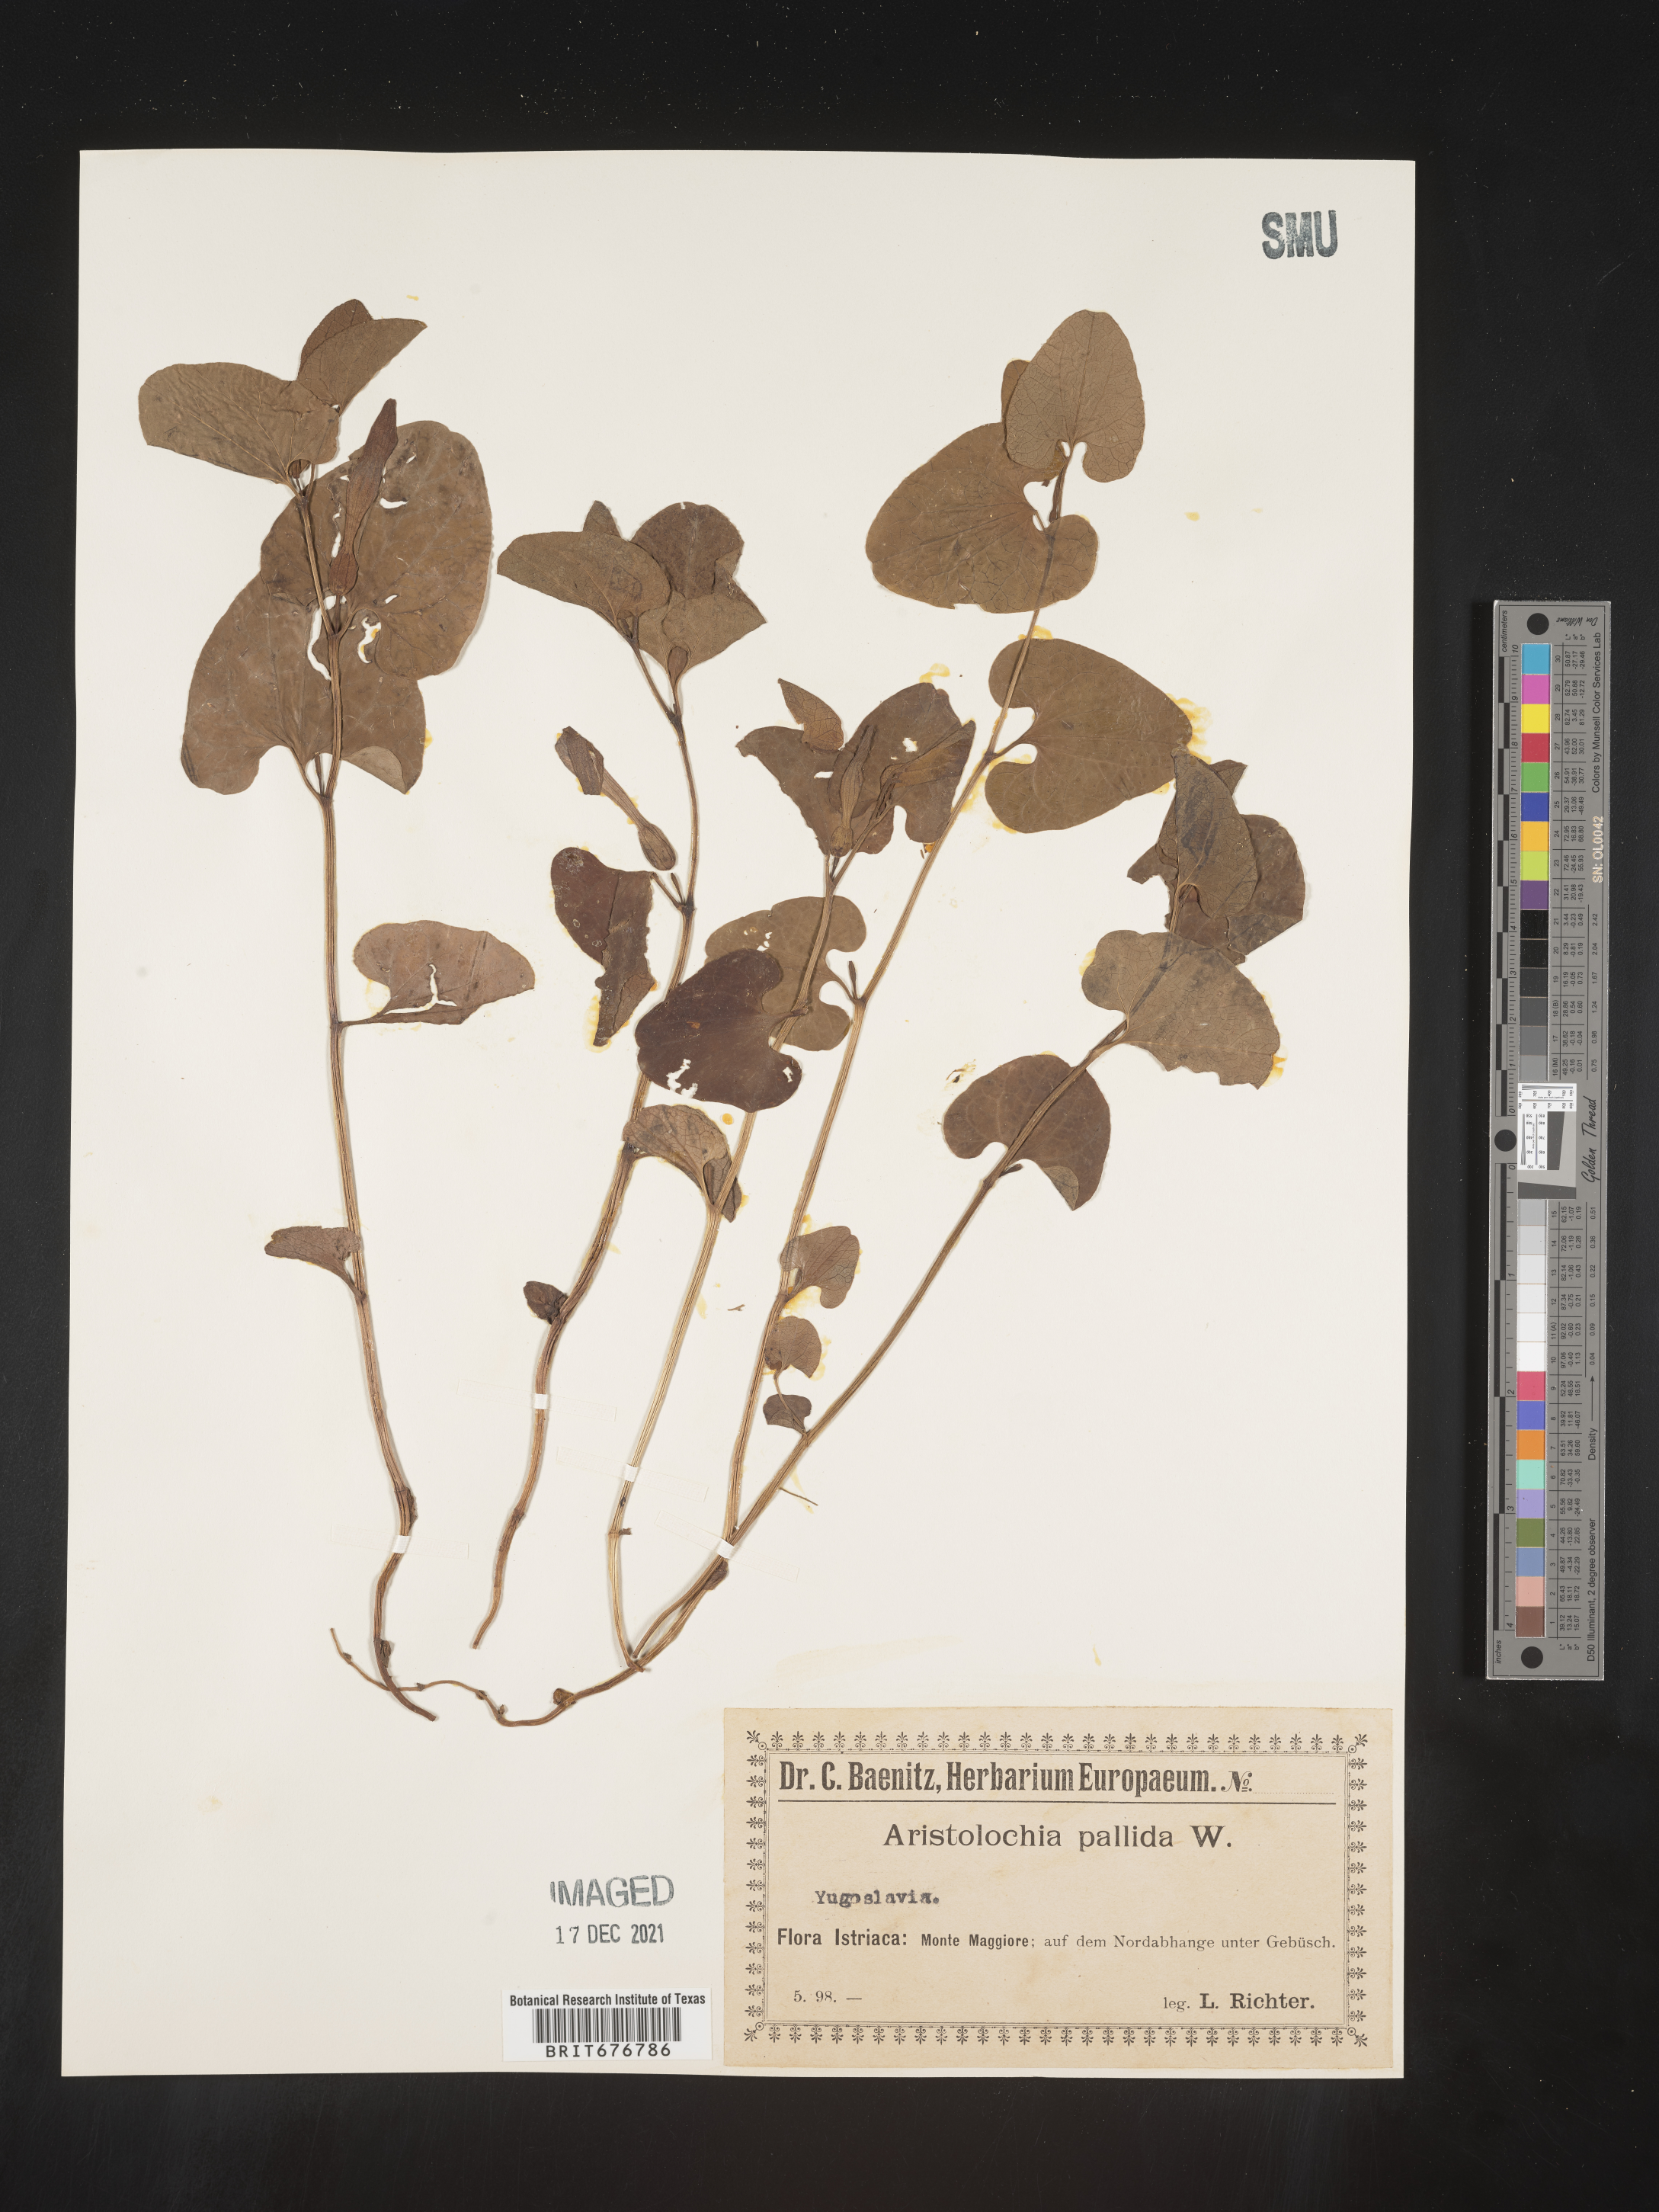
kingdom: Plantae
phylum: Tracheophyta
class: Magnoliopsida
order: Piperales
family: Aristolochiaceae
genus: Aristolochia
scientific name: Aristolochia
